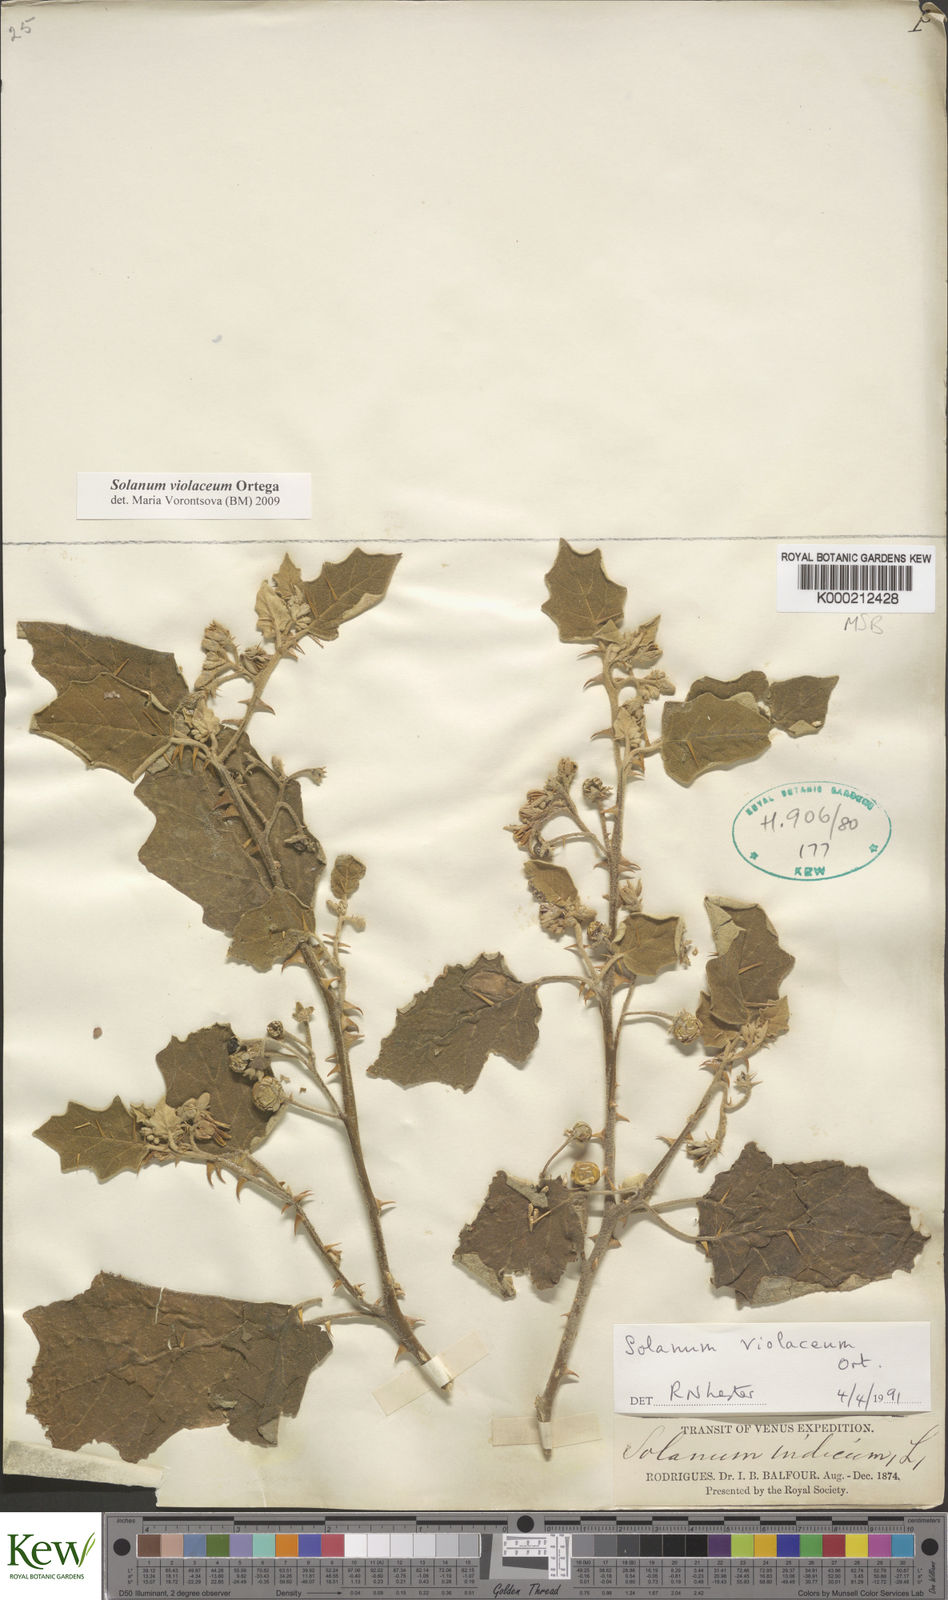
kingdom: Plantae
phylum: Tracheophyta
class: Magnoliopsida
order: Solanales
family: Solanaceae
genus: Solanum
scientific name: Solanum violaceum
